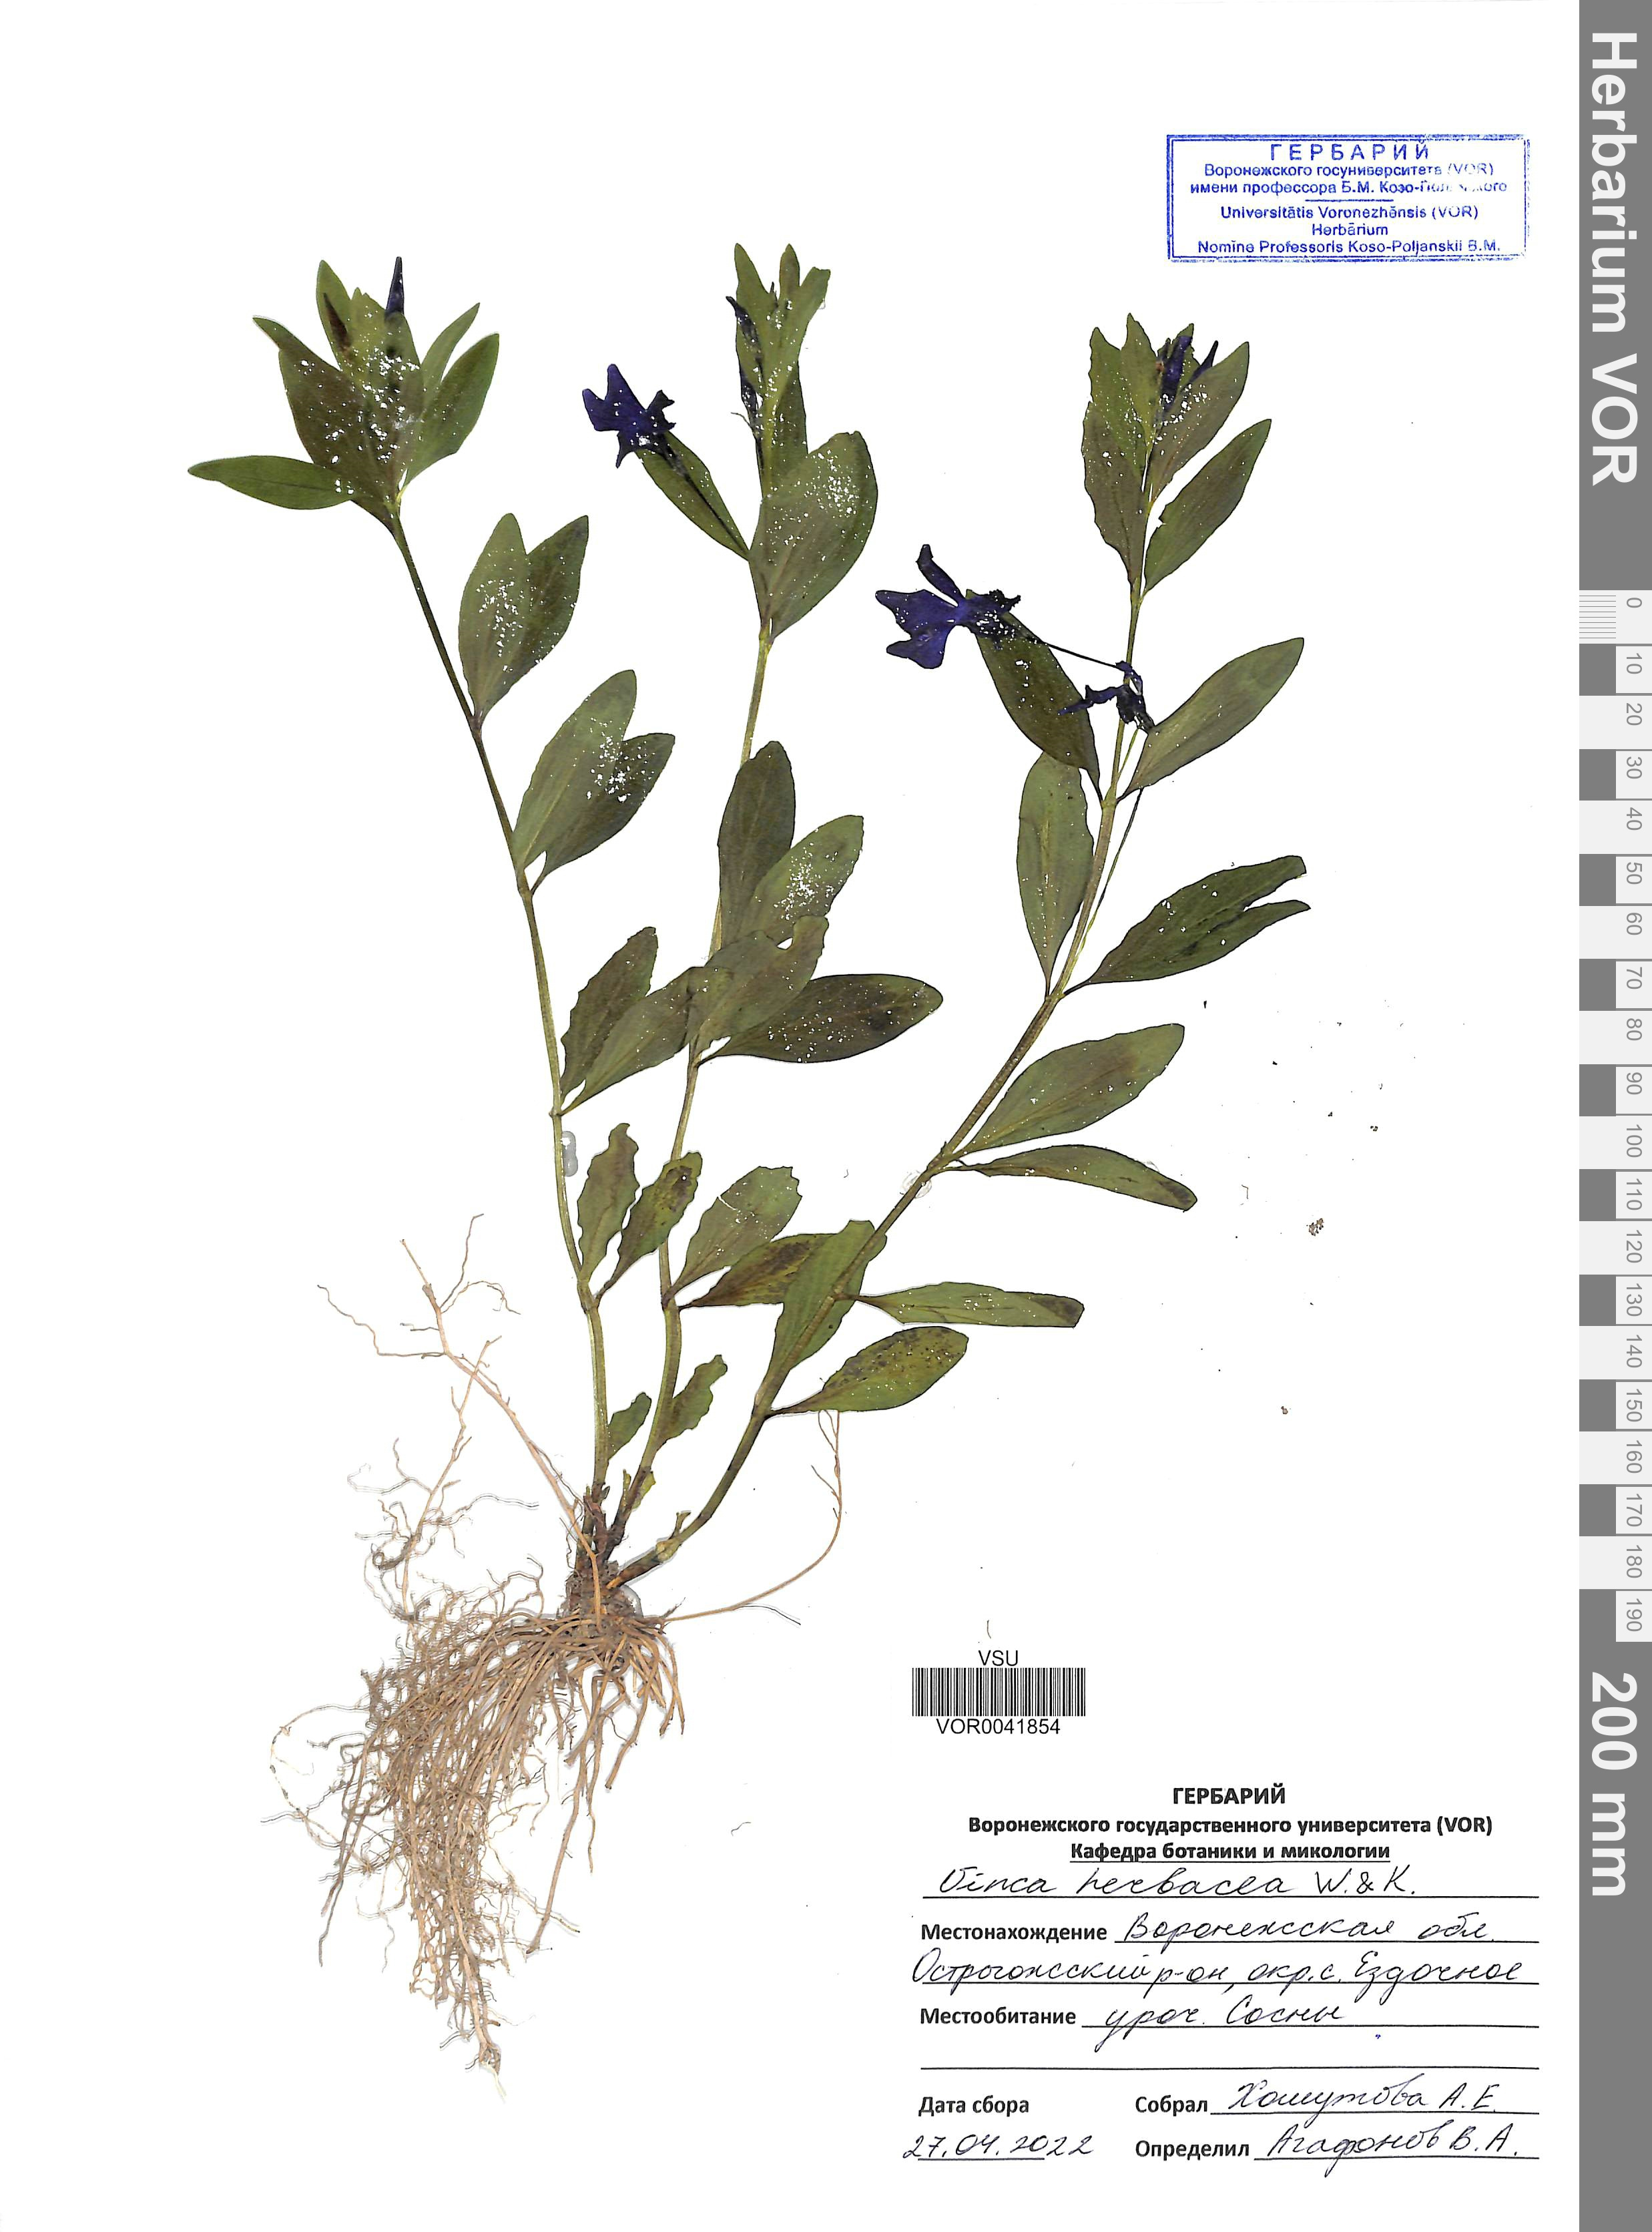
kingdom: Plantae
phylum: Tracheophyta
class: Magnoliopsida
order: Gentianales
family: Apocynaceae
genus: Vinca
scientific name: Vinca herbacea
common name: Herbaceous periwinkle
